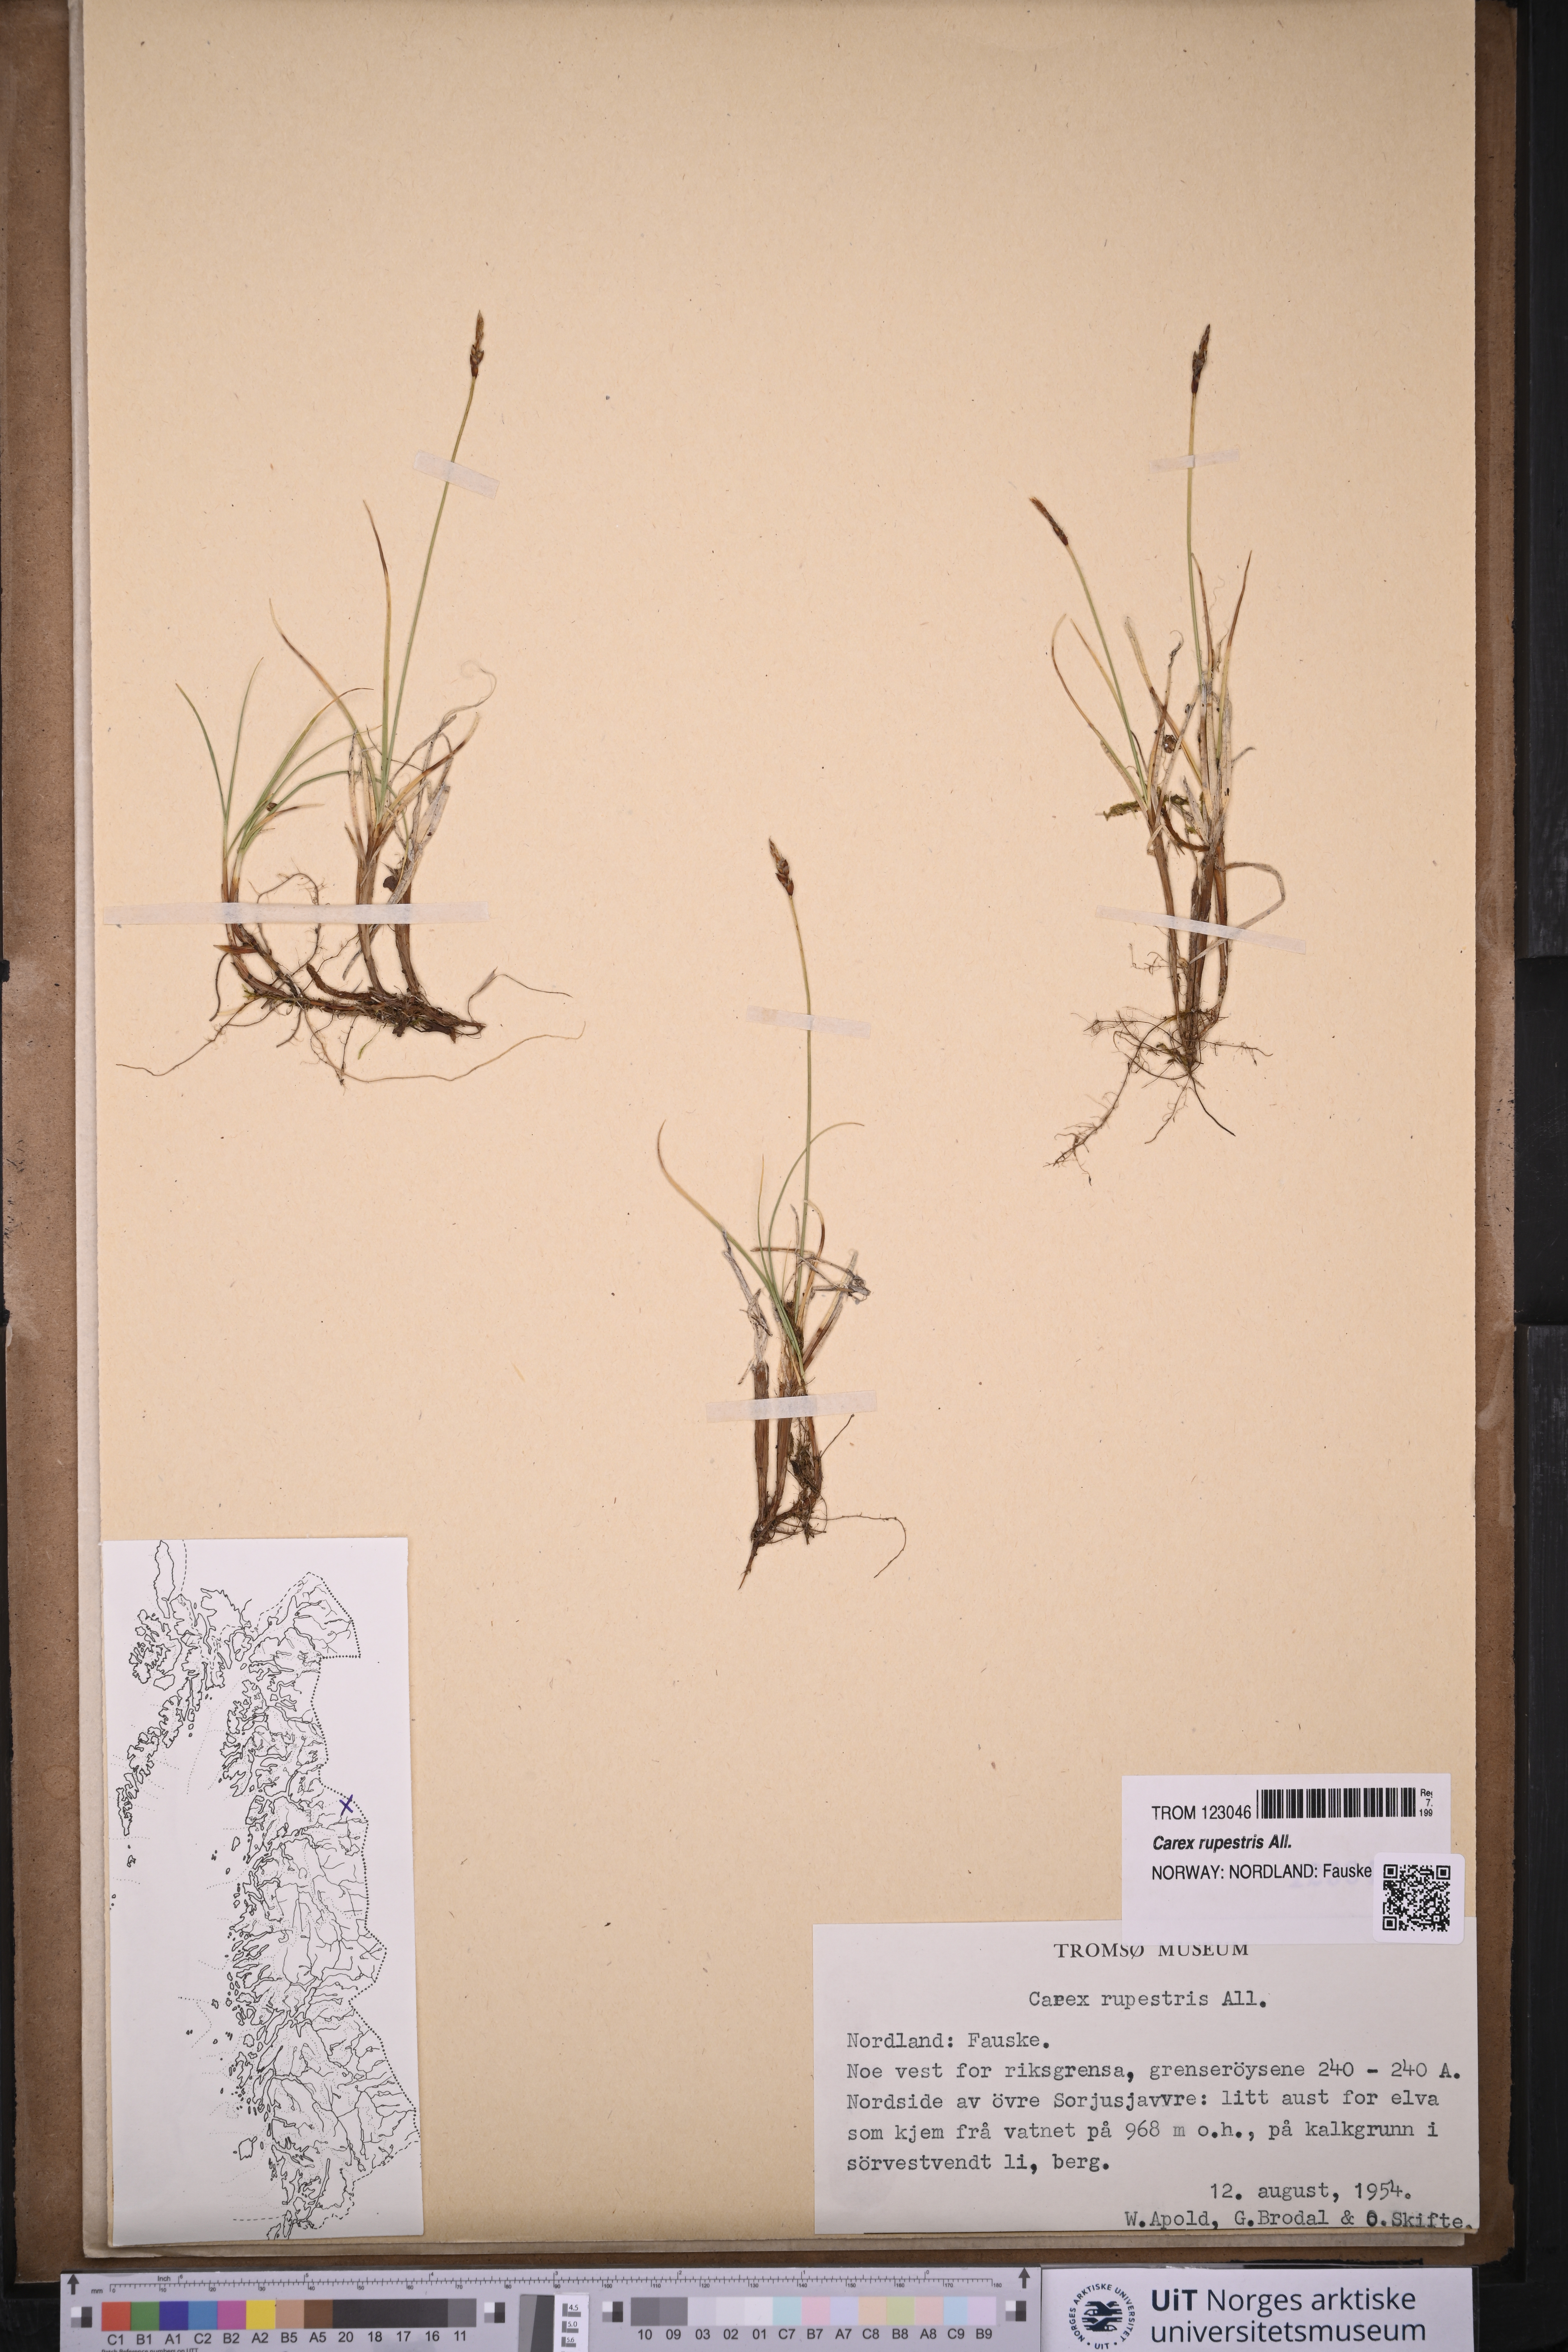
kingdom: Plantae
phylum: Tracheophyta
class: Liliopsida
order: Poales
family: Cyperaceae
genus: Carex
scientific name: Carex rupestris
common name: Rock sedge
